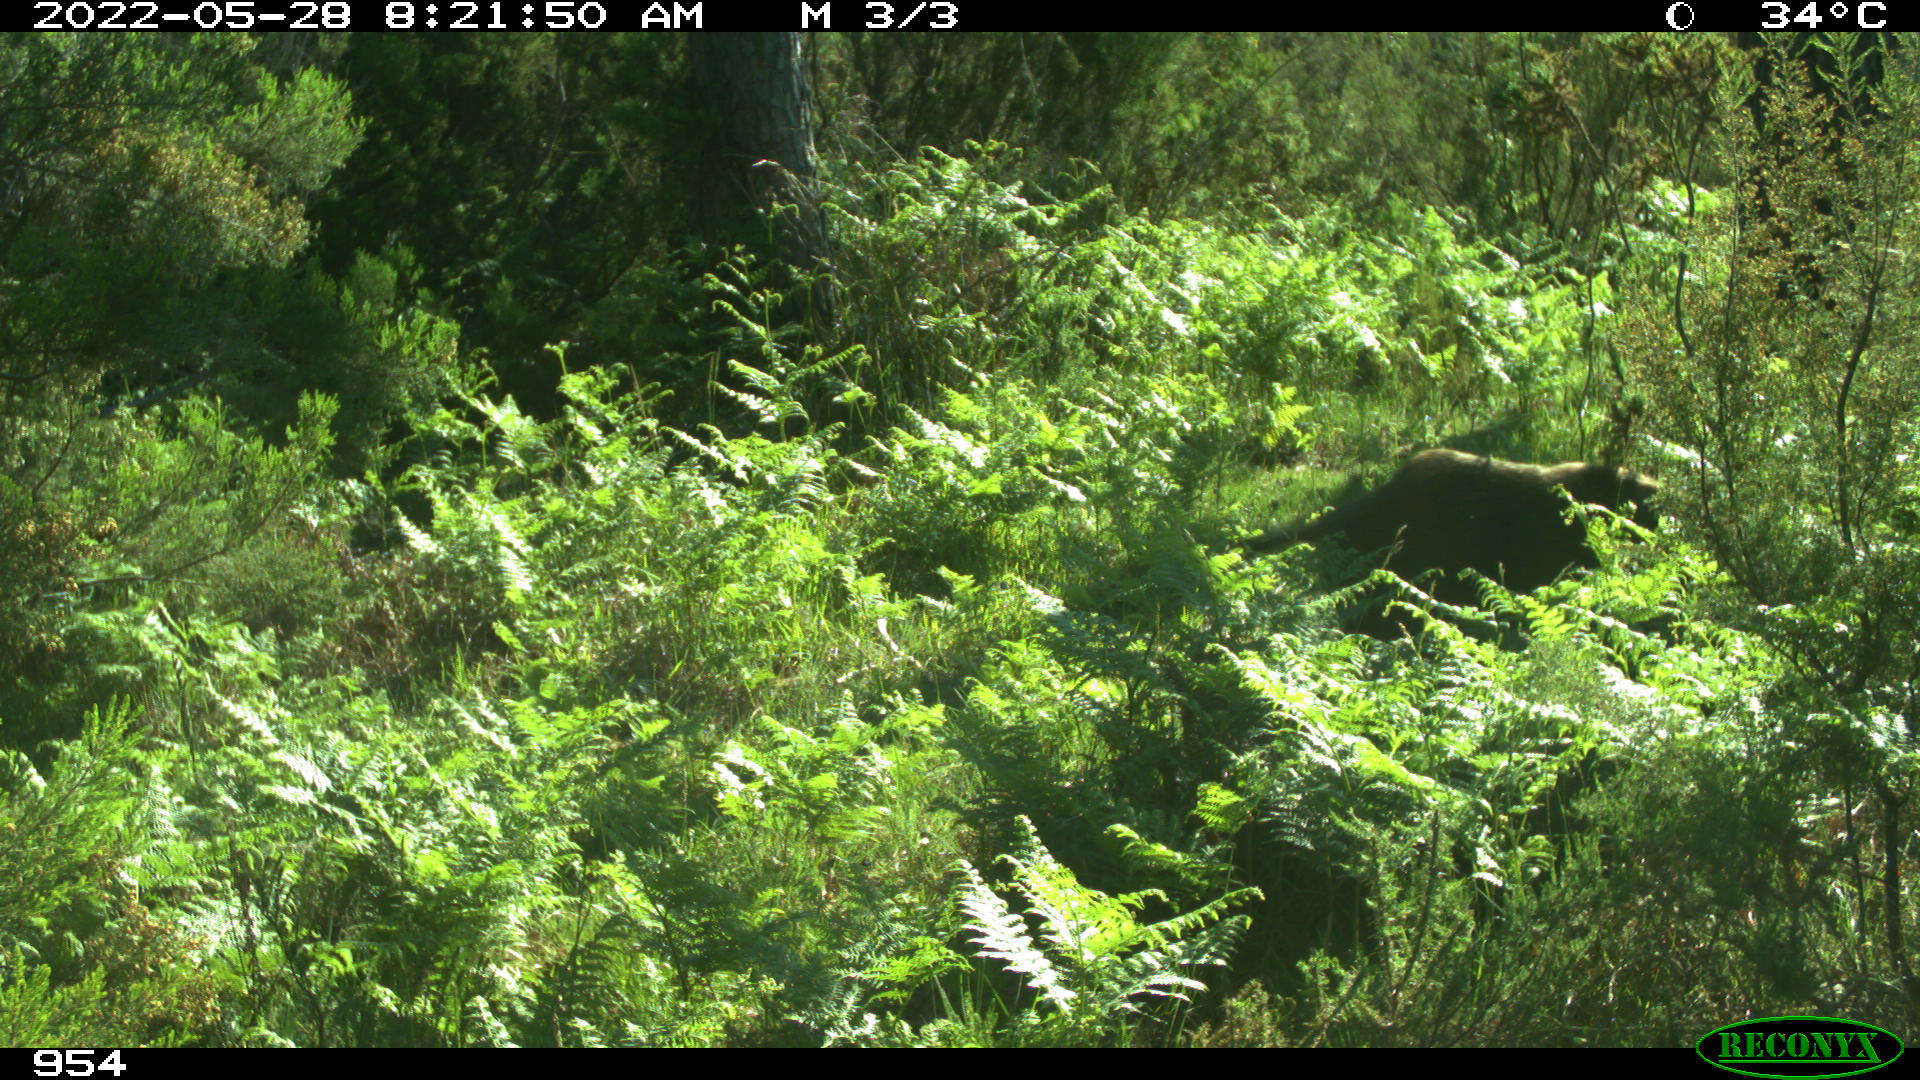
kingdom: Animalia
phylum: Chordata
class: Mammalia
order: Artiodactyla
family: Suidae
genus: Sus
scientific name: Sus scrofa
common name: Wild boar
